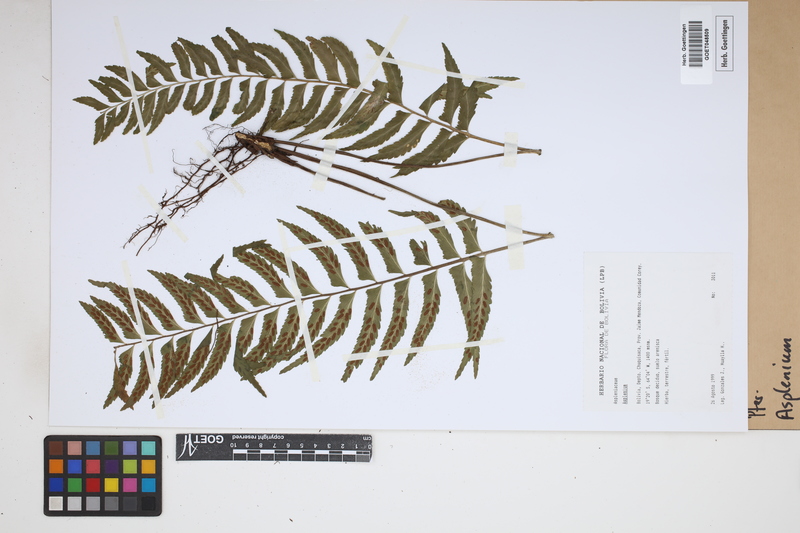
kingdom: Plantae
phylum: Tracheophyta
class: Polypodiopsida
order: Polypodiales
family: Aspleniaceae
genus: Asplenium
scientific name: Asplenium
